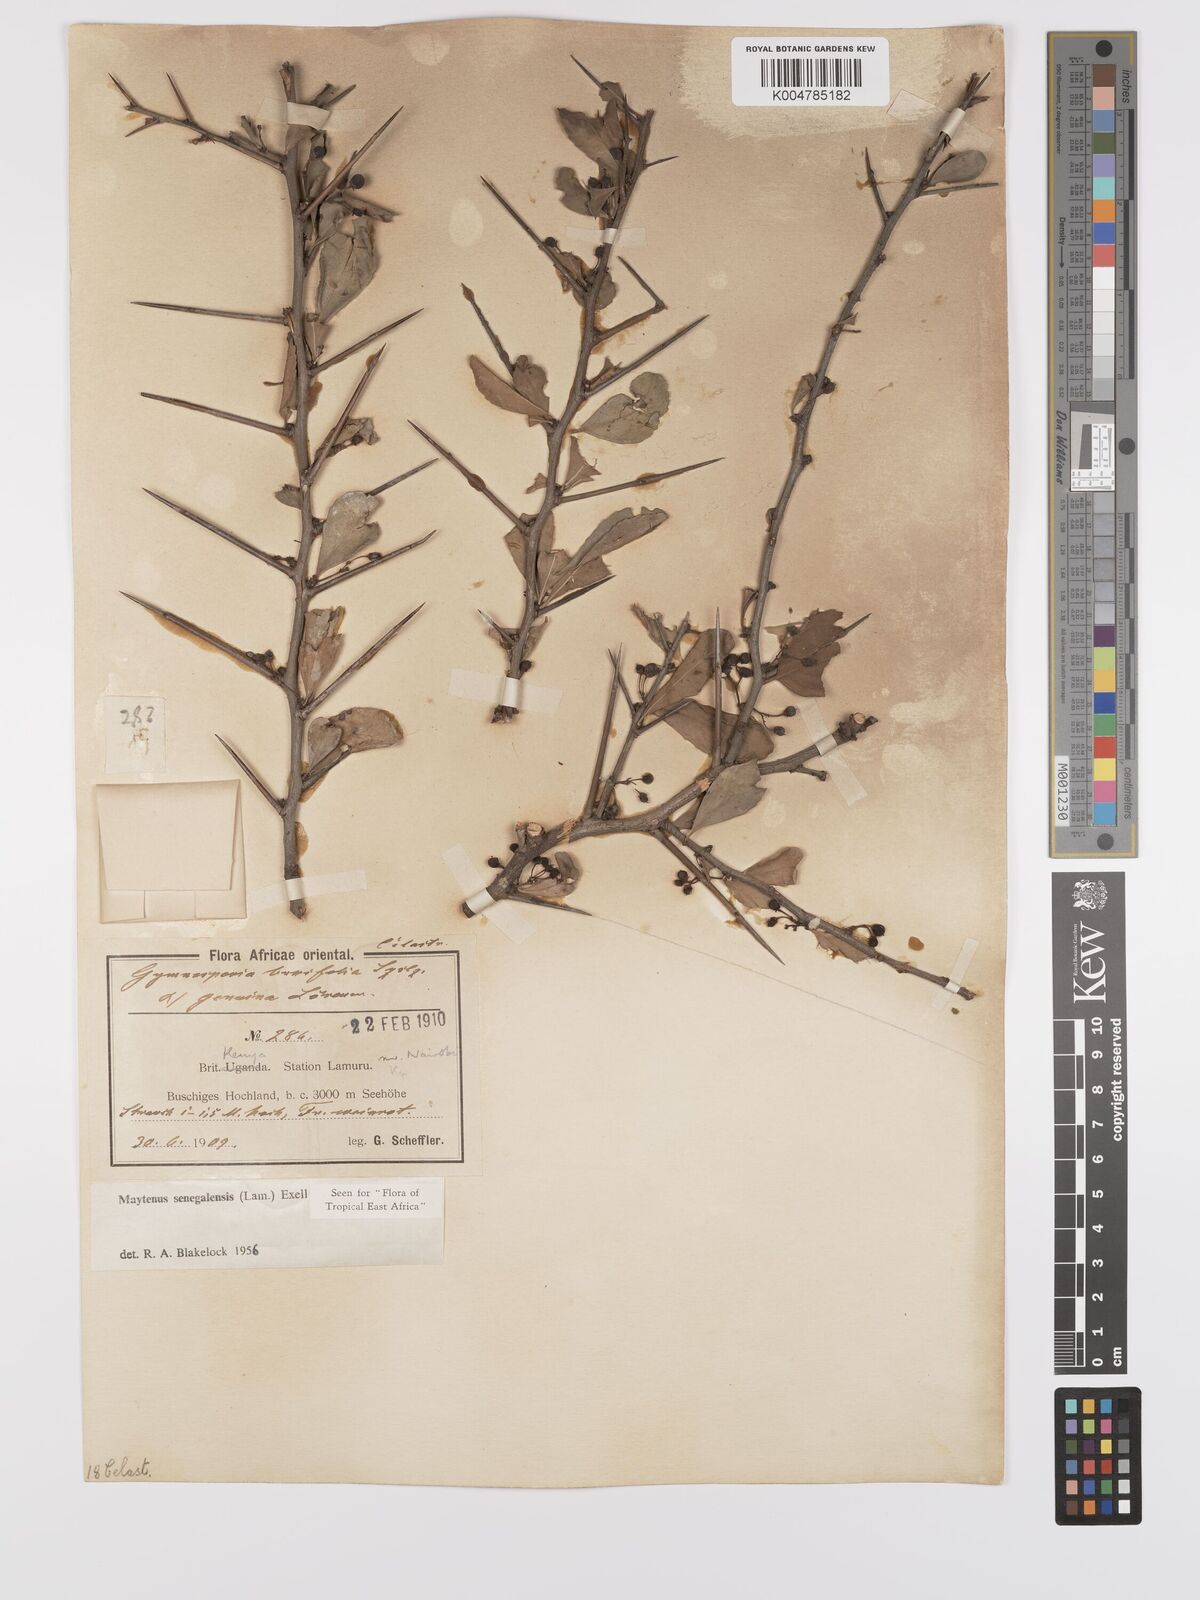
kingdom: Plantae
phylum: Tracheophyta
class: Magnoliopsida
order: Celastrales
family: Celastraceae
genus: Gymnosporia
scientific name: Gymnosporia heterophylla
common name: Angle-stem spikethorn
